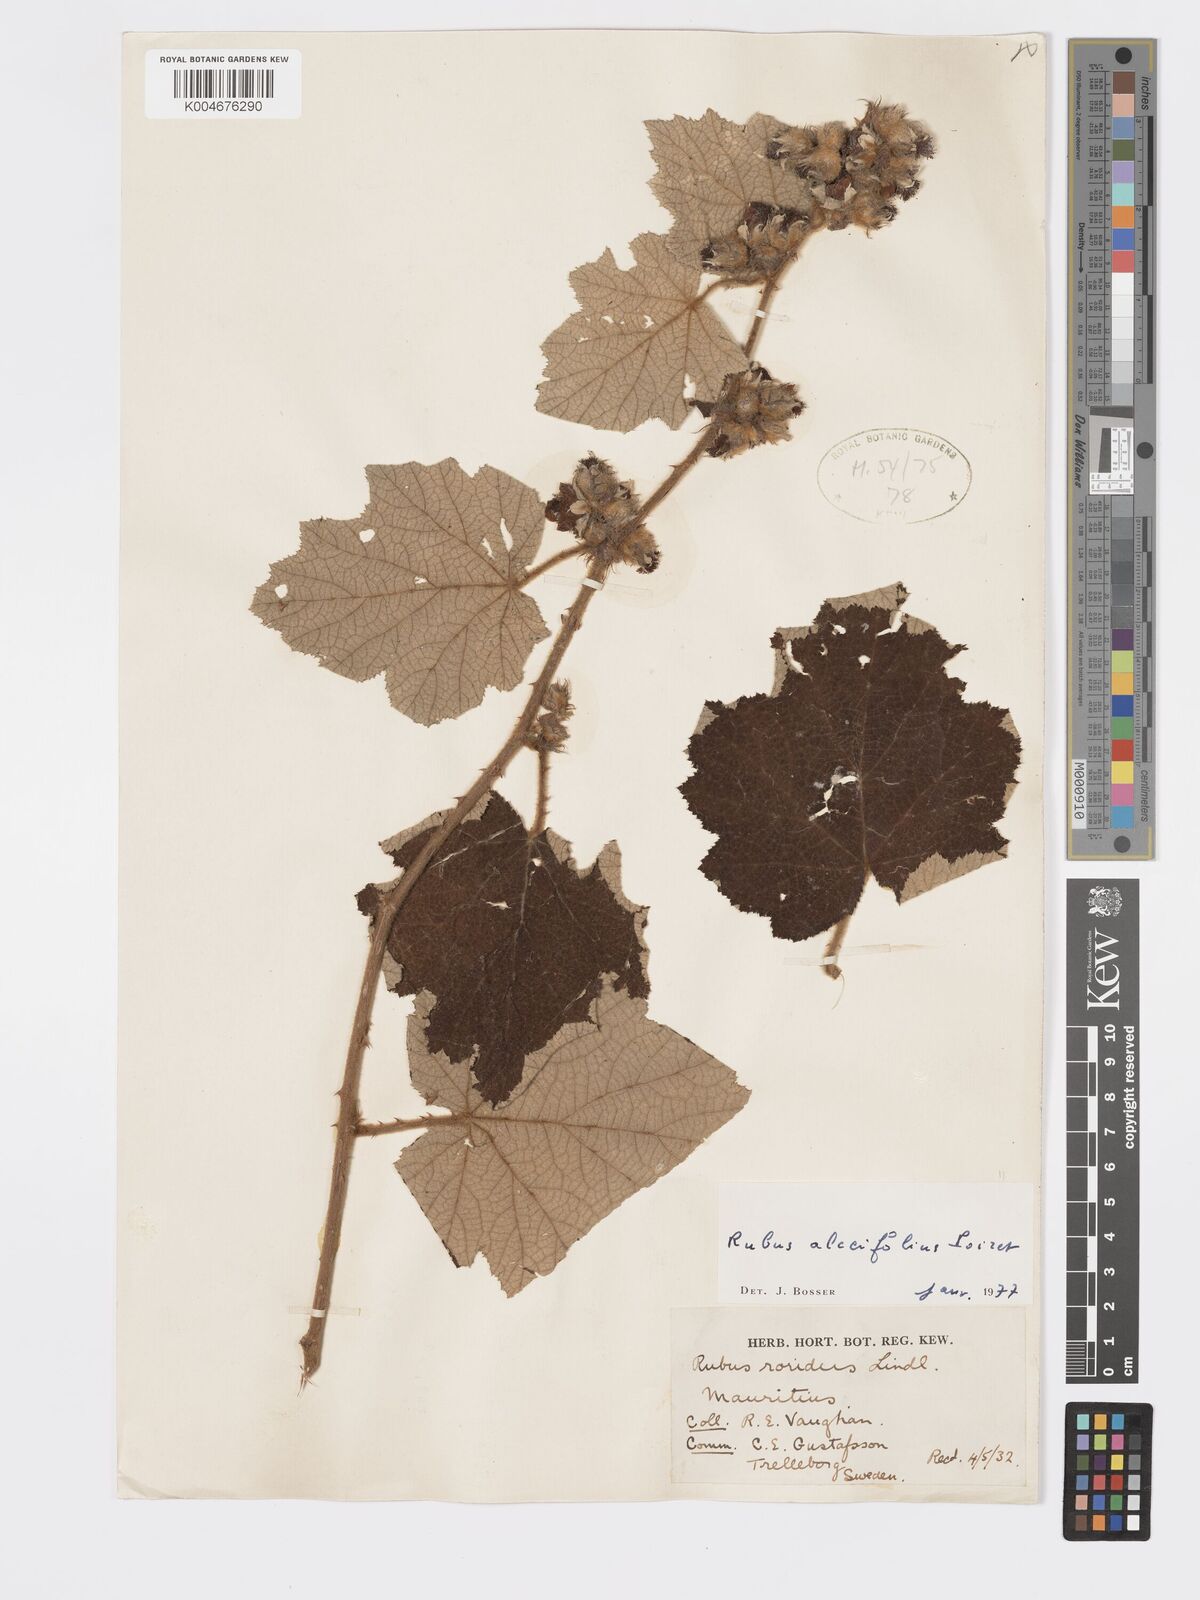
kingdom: Plantae
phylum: Tracheophyta
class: Magnoliopsida
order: Rosales
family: Rosaceae
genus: Rubus
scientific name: Rubus alceifolius
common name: Giant bramble
